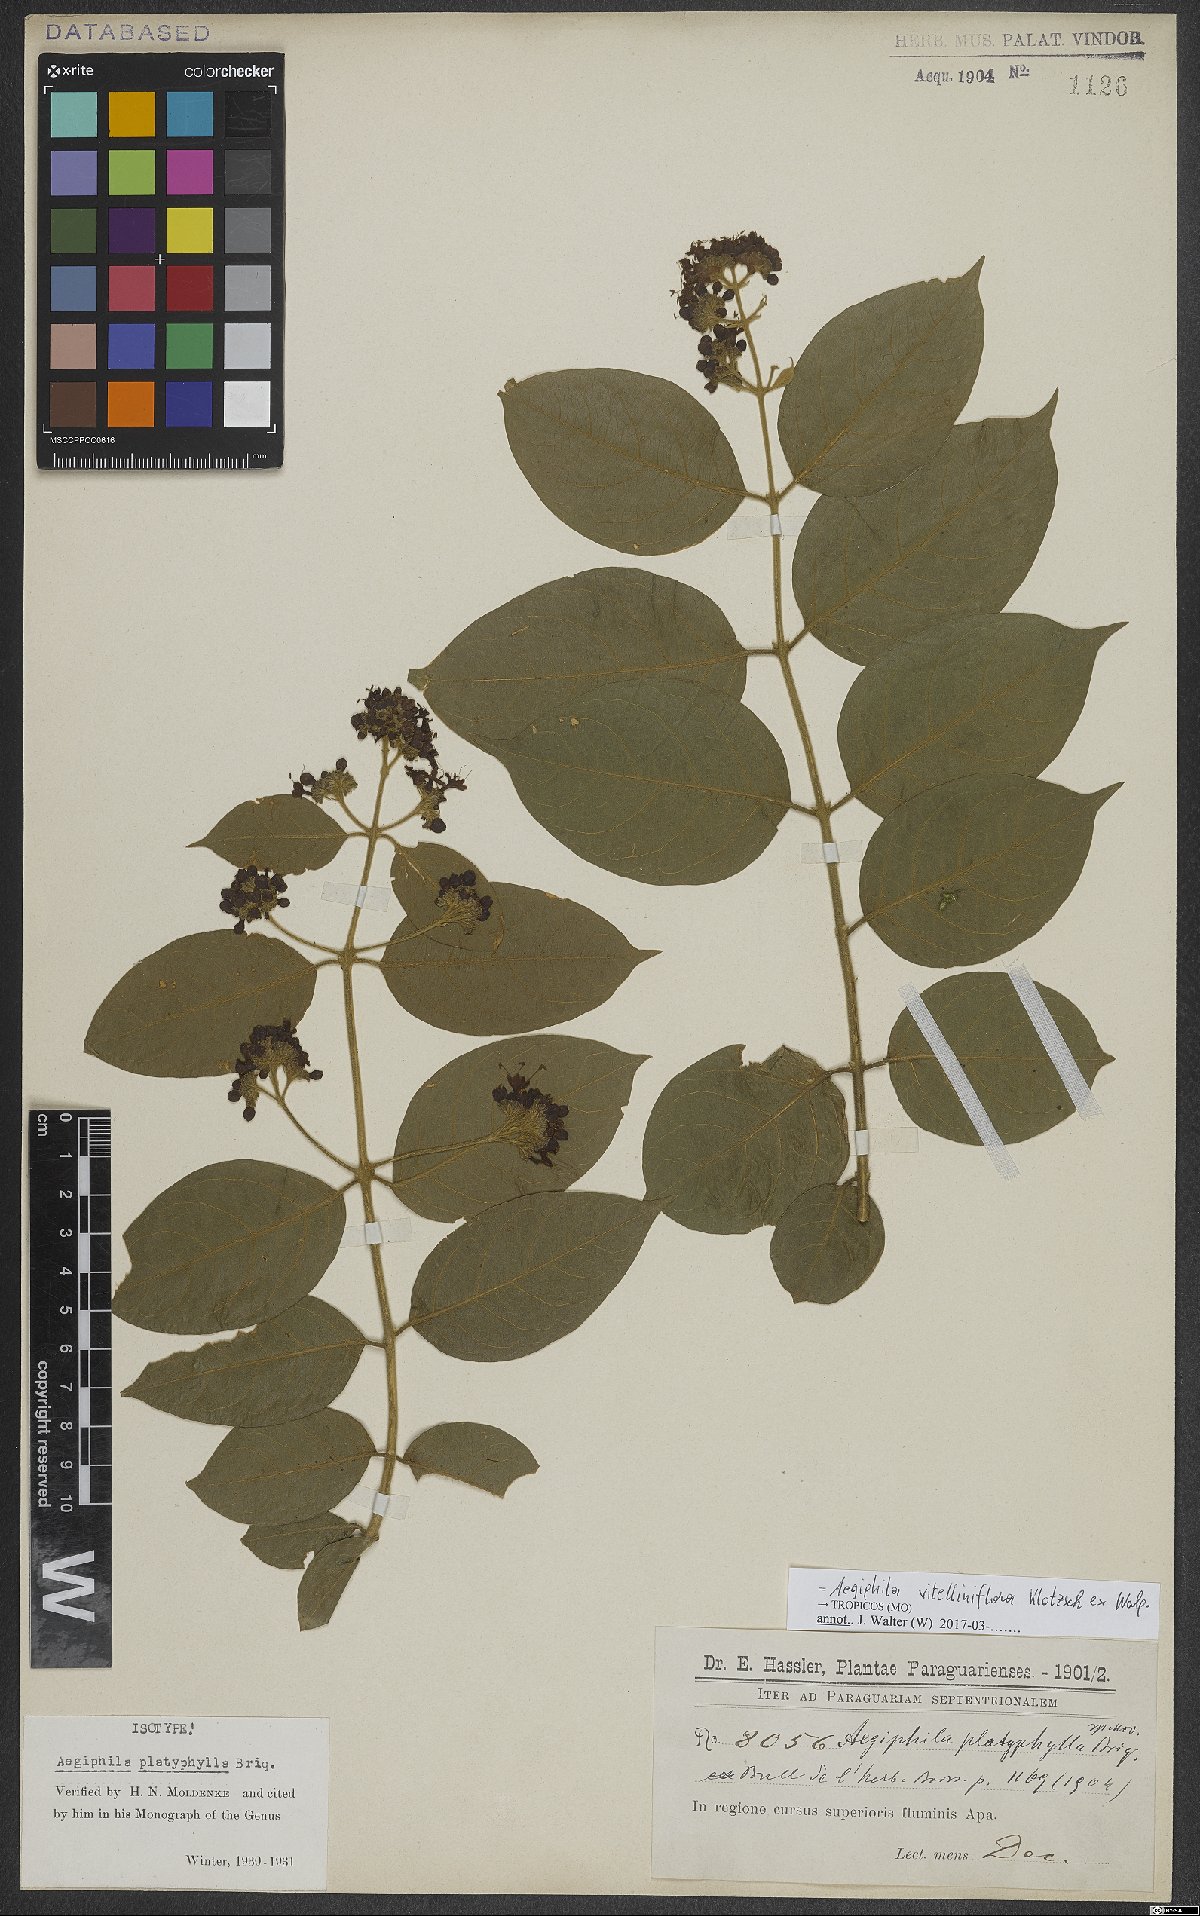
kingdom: Plantae
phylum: Tracheophyta
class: Magnoliopsida
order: Lamiales
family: Lamiaceae
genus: Aegiphila
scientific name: Aegiphila vitelliniflora
